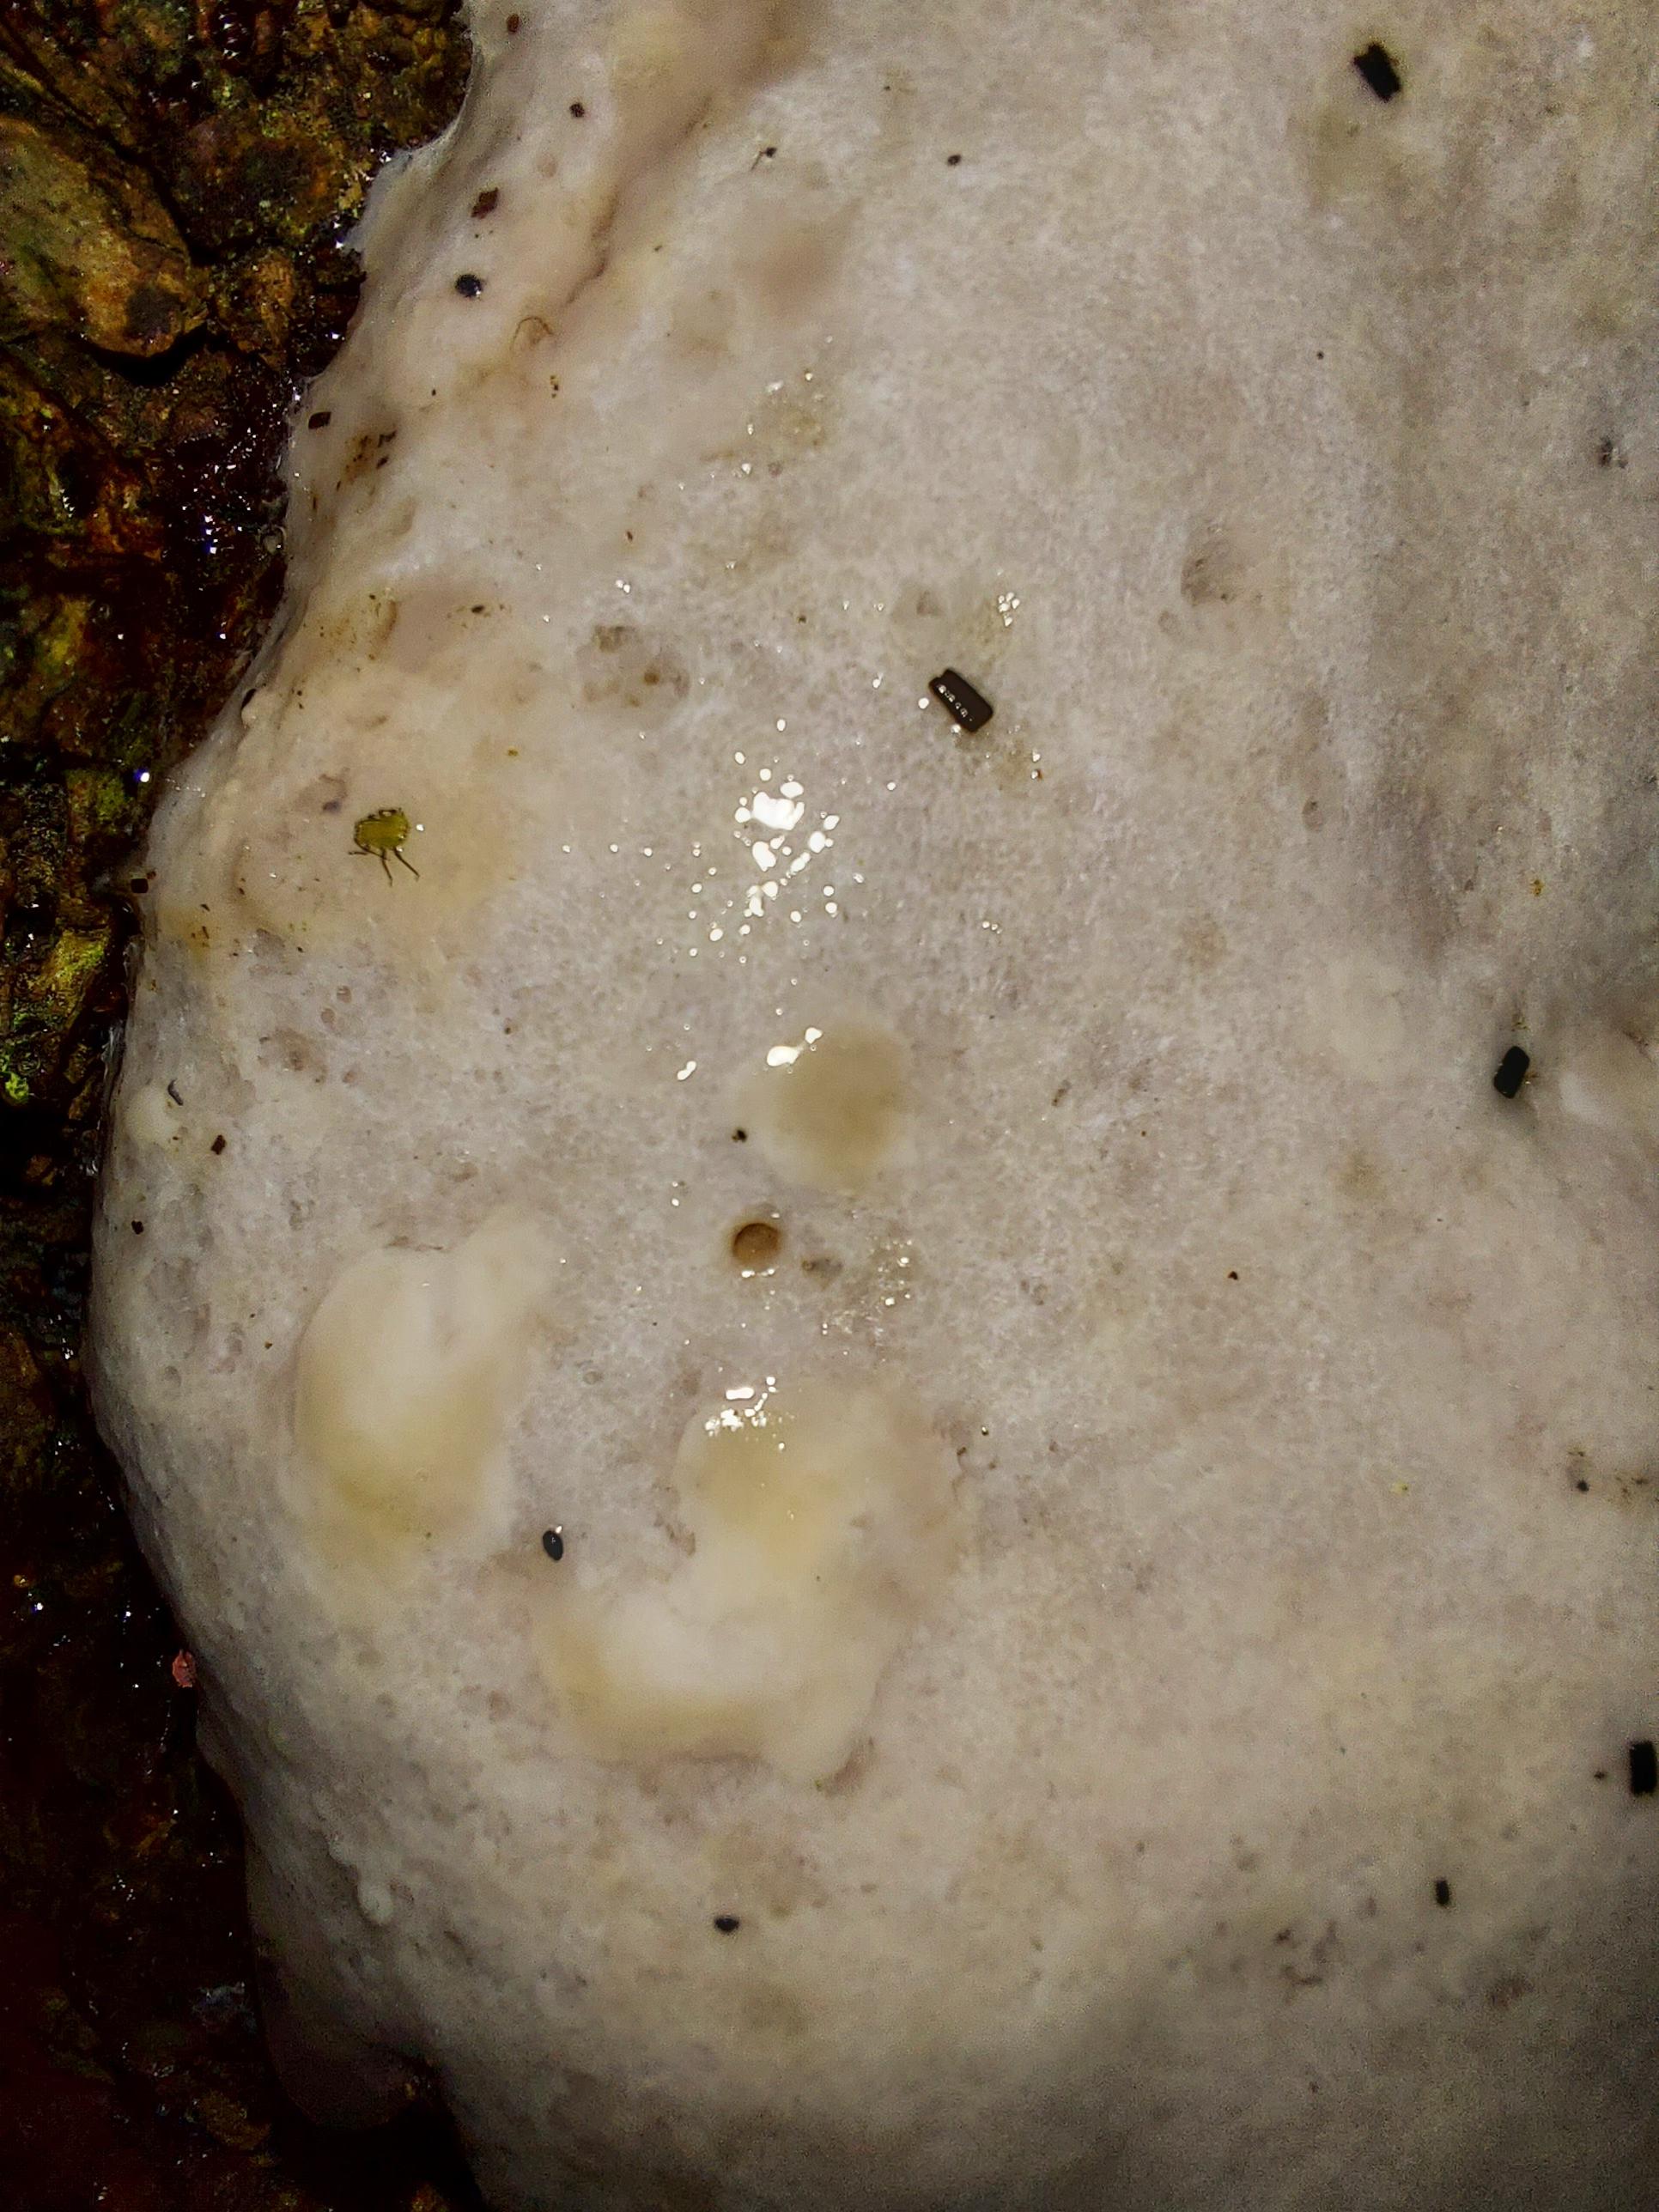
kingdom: Protozoa
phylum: Mycetozoa
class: Myxomycetes
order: Cribrariales
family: Tubiferaceae
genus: Reticularia
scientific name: Reticularia lycoperdon
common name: skinnende støvpude
